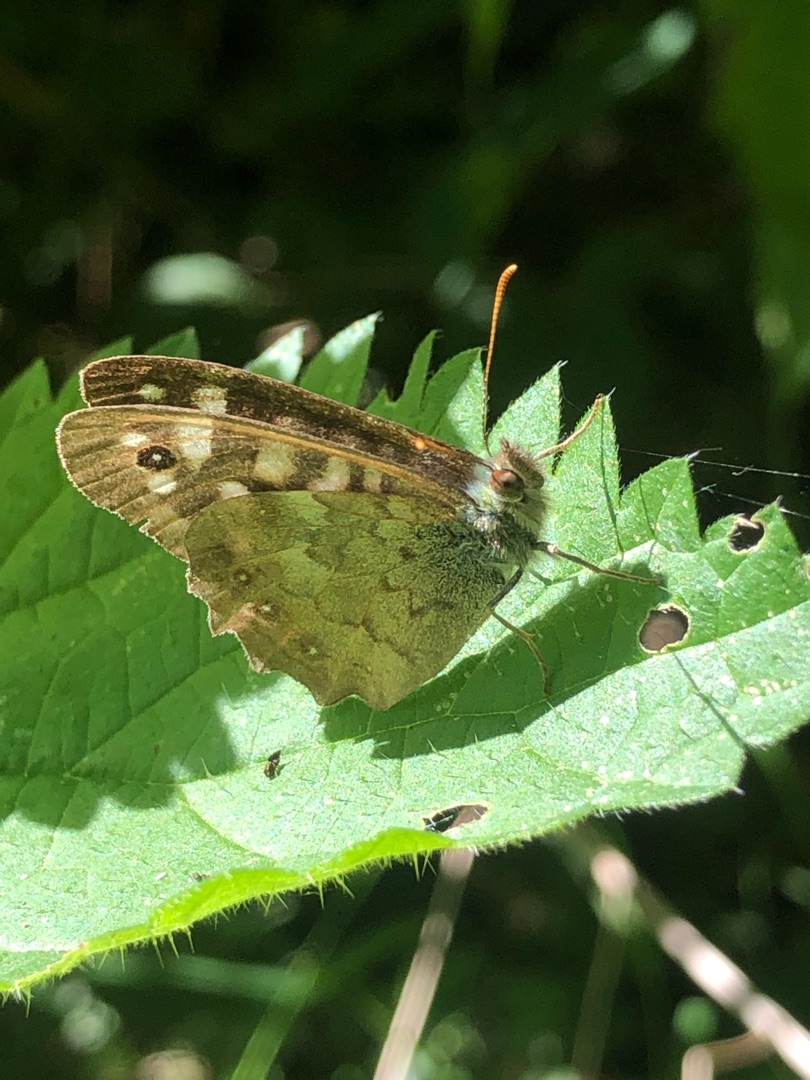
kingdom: Animalia
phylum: Arthropoda
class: Insecta
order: Lepidoptera
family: Nymphalidae
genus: Pararge
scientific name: Pararge aegeria
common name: Skovrandøje
